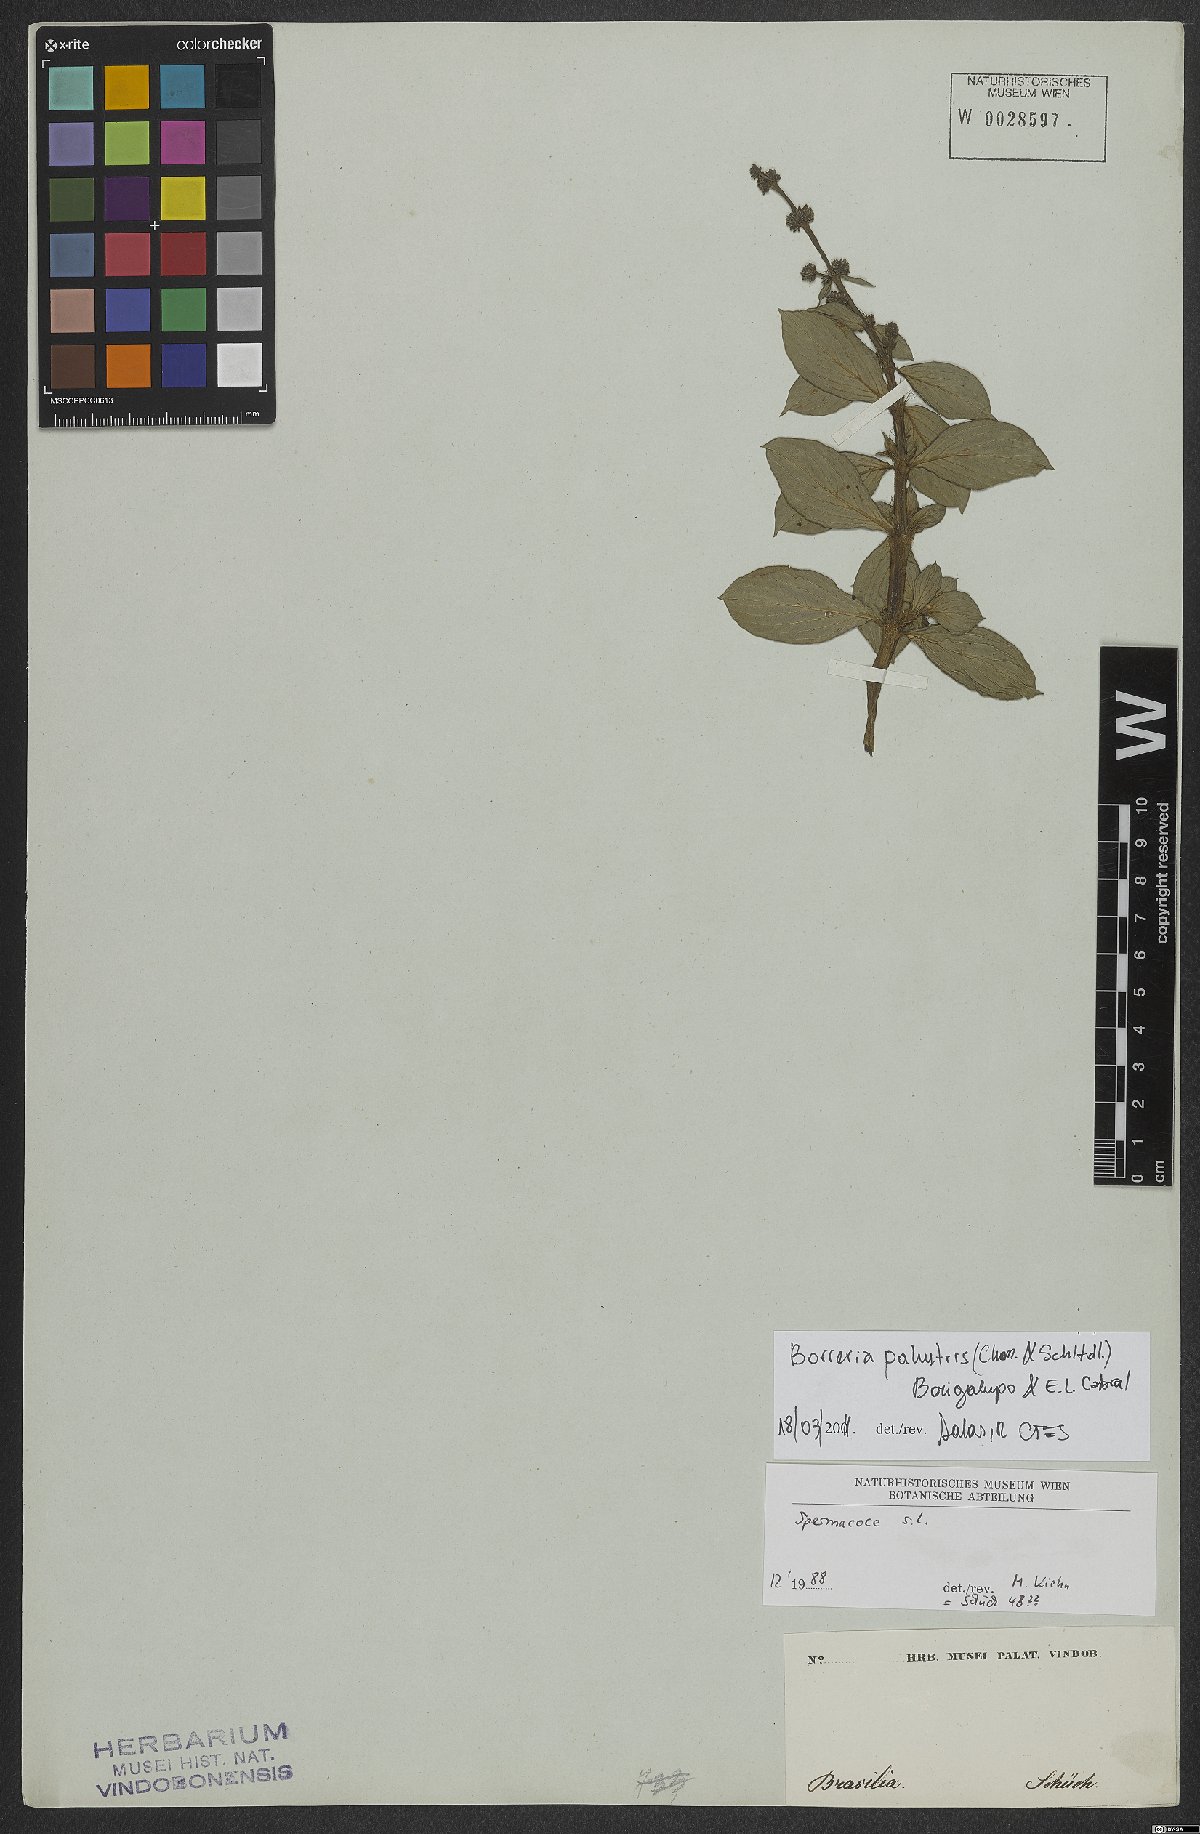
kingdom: Plantae
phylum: Tracheophyta
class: Magnoliopsida
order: Gentianales
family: Rubiaceae
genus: Galianthe
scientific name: Galianthe palustris
